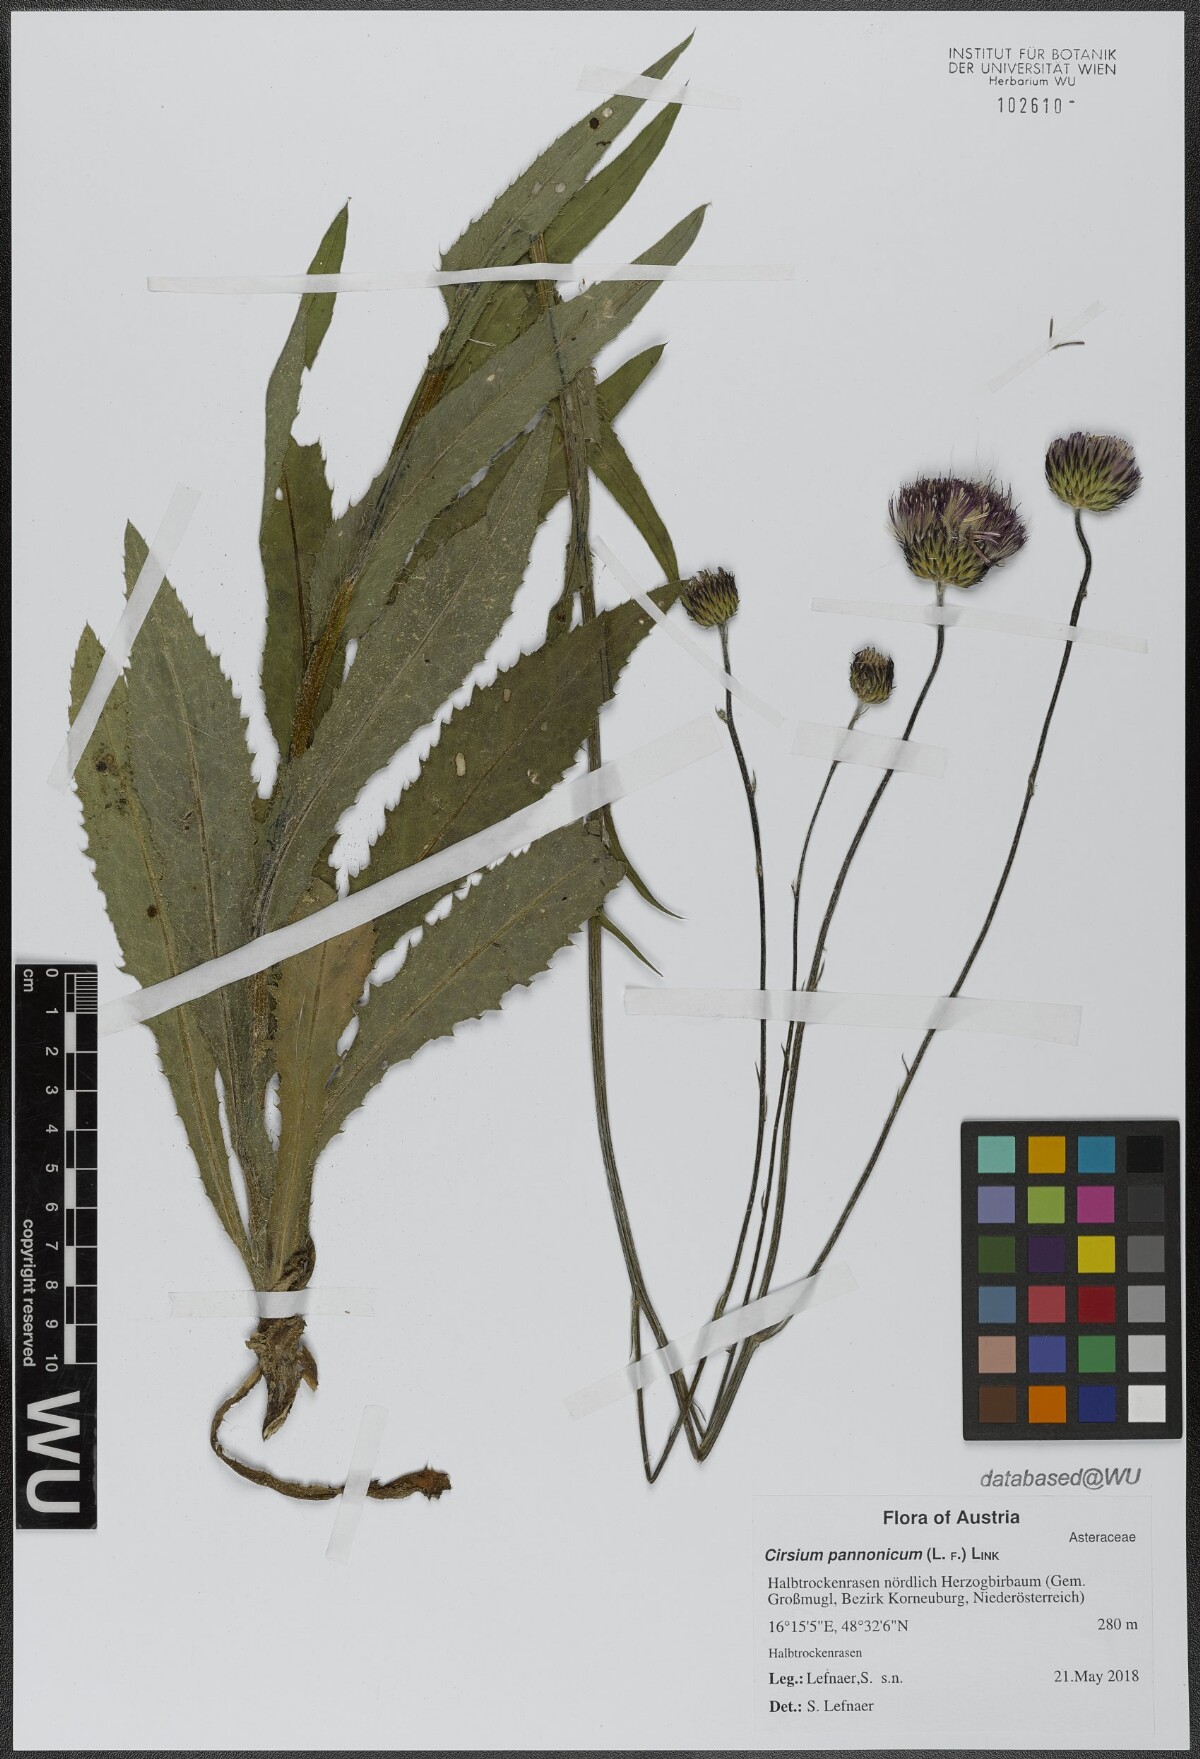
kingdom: Plantae
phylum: Tracheophyta
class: Magnoliopsida
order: Asterales
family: Asteraceae
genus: Cirsium
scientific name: Cirsium pannonicum
